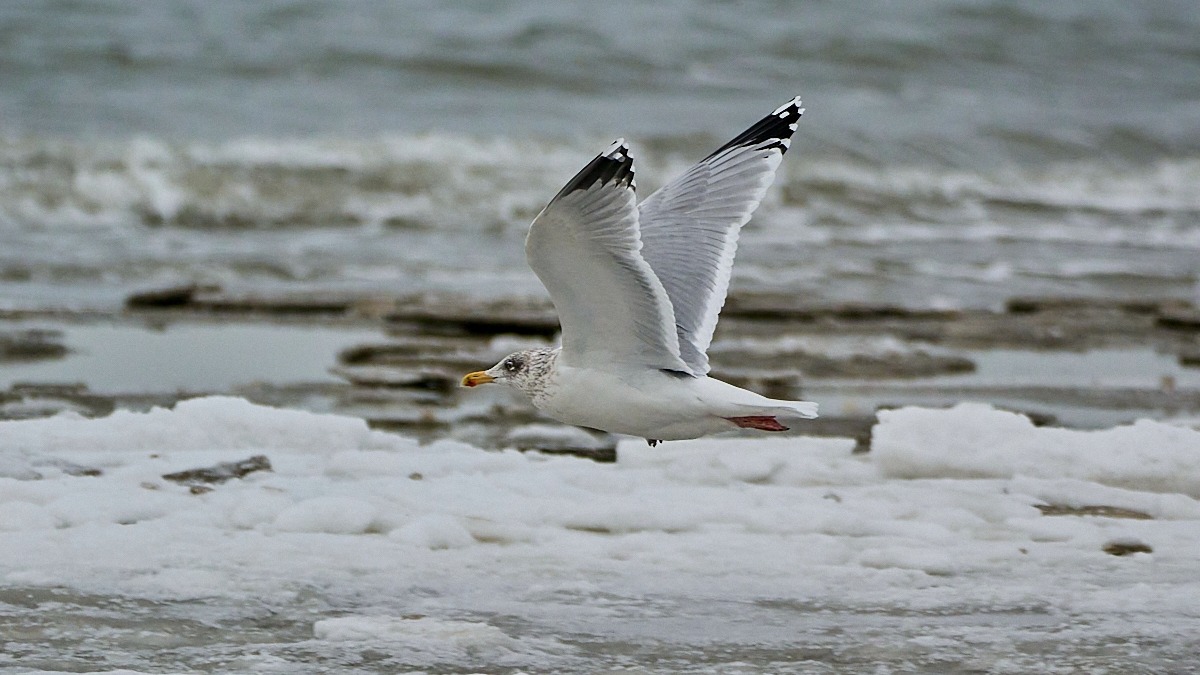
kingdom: Animalia
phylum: Chordata
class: Aves
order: Charadriiformes
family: Laridae
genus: Larus
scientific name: Larus argentatus
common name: Sølvmåge
